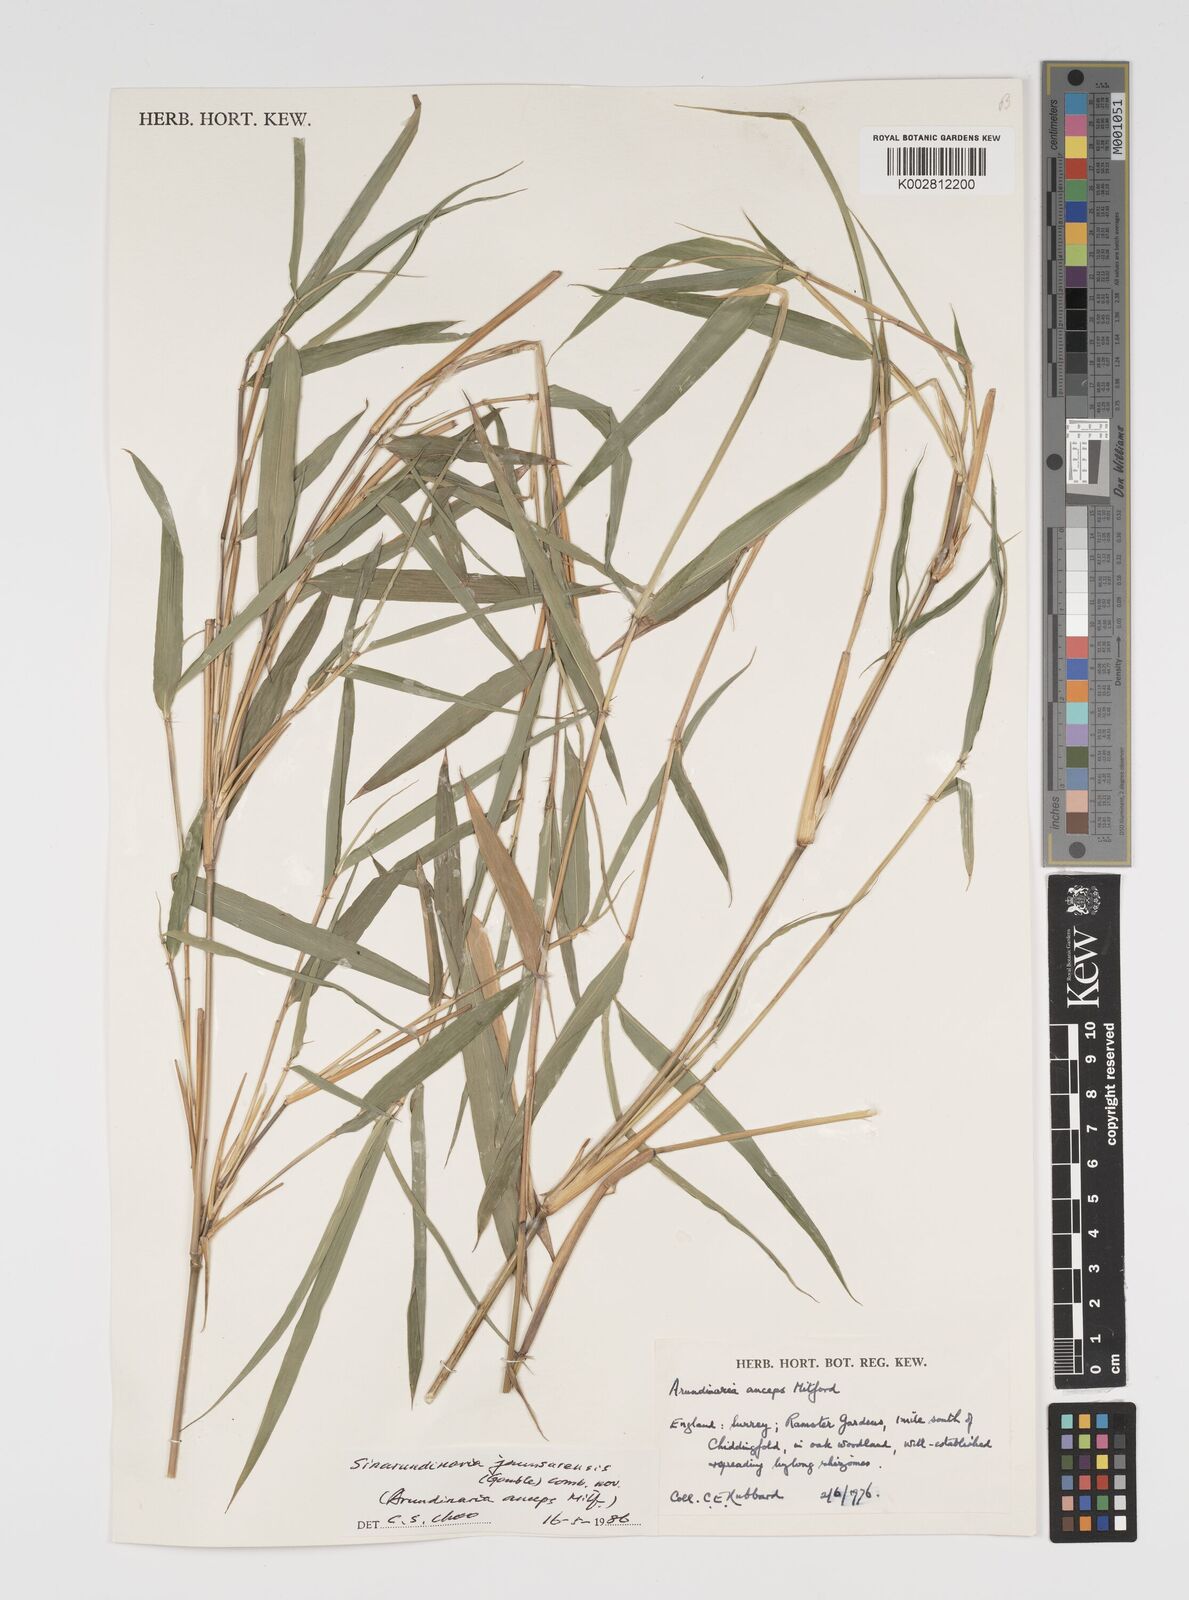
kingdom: Plantae
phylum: Tracheophyta
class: Liliopsida
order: Poales
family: Poaceae
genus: Yushania
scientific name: Yushania anceps
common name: Indian fountain-bamboo
